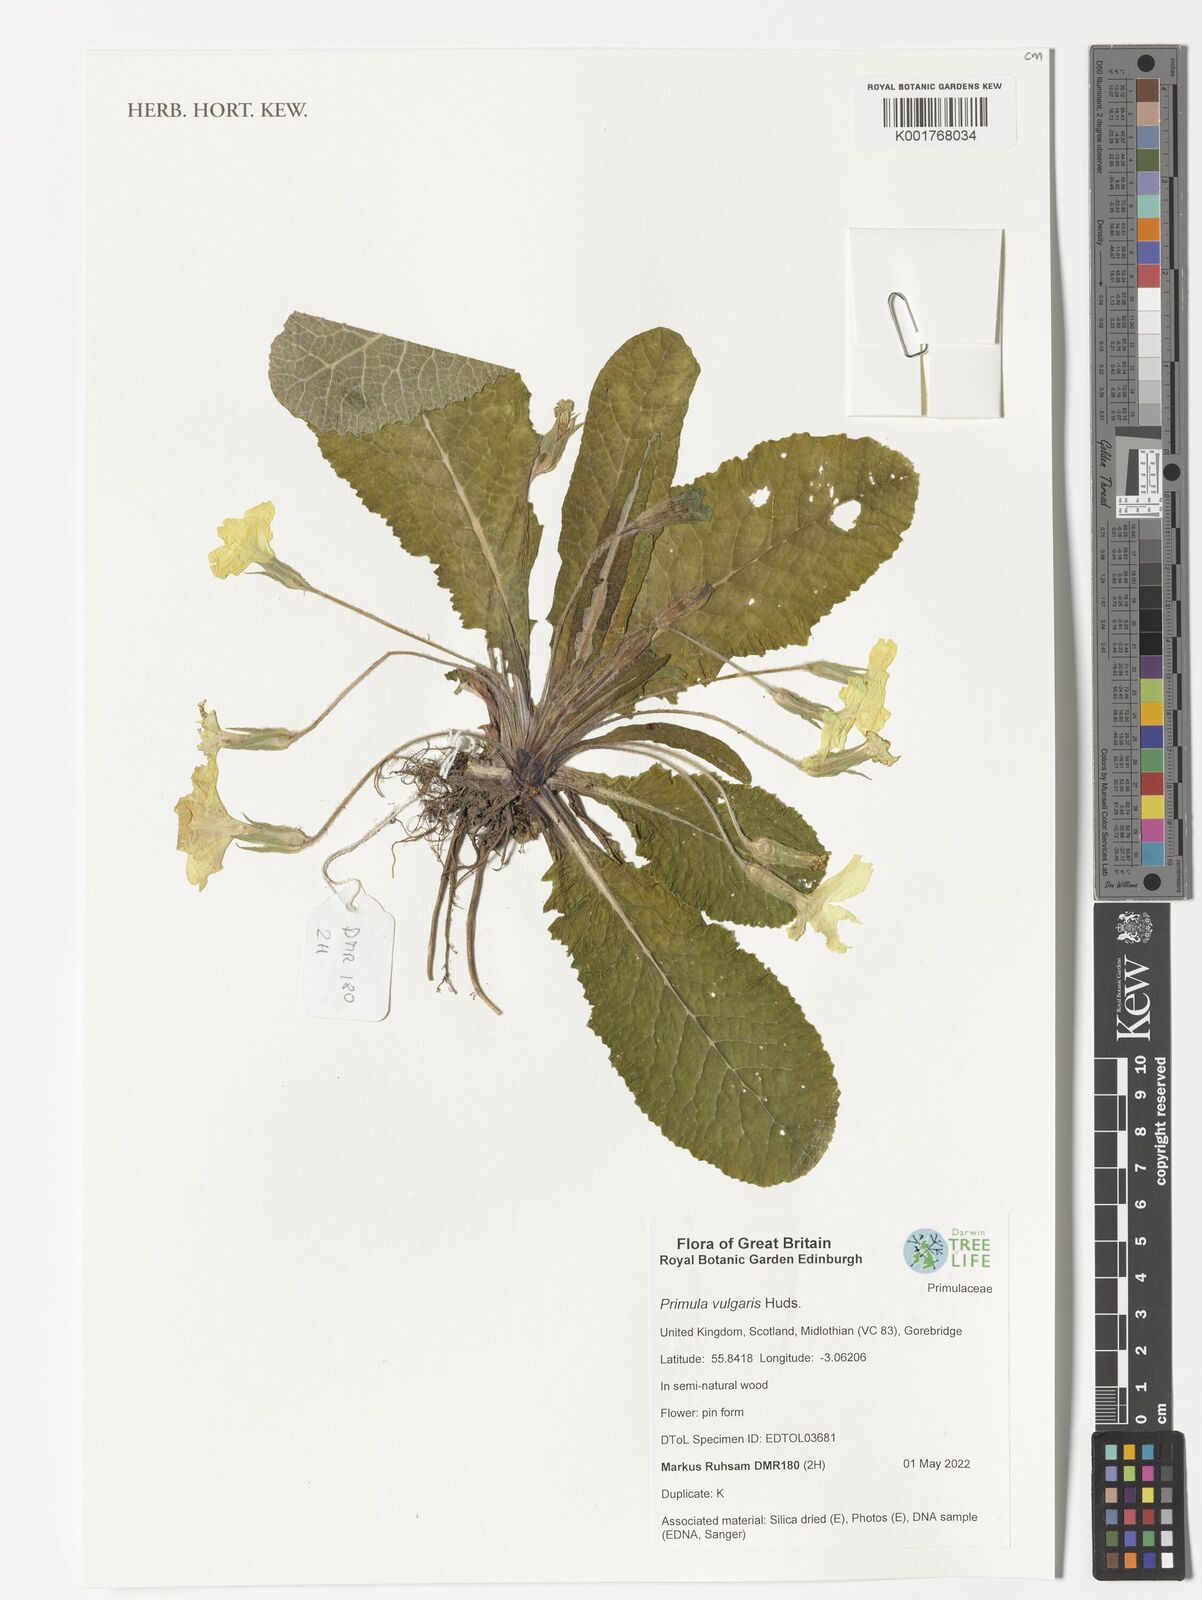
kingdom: Plantae
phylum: Tracheophyta
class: Magnoliopsida
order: Ericales
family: Primulaceae
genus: Primula
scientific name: Primula vulgaris
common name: Primrose
